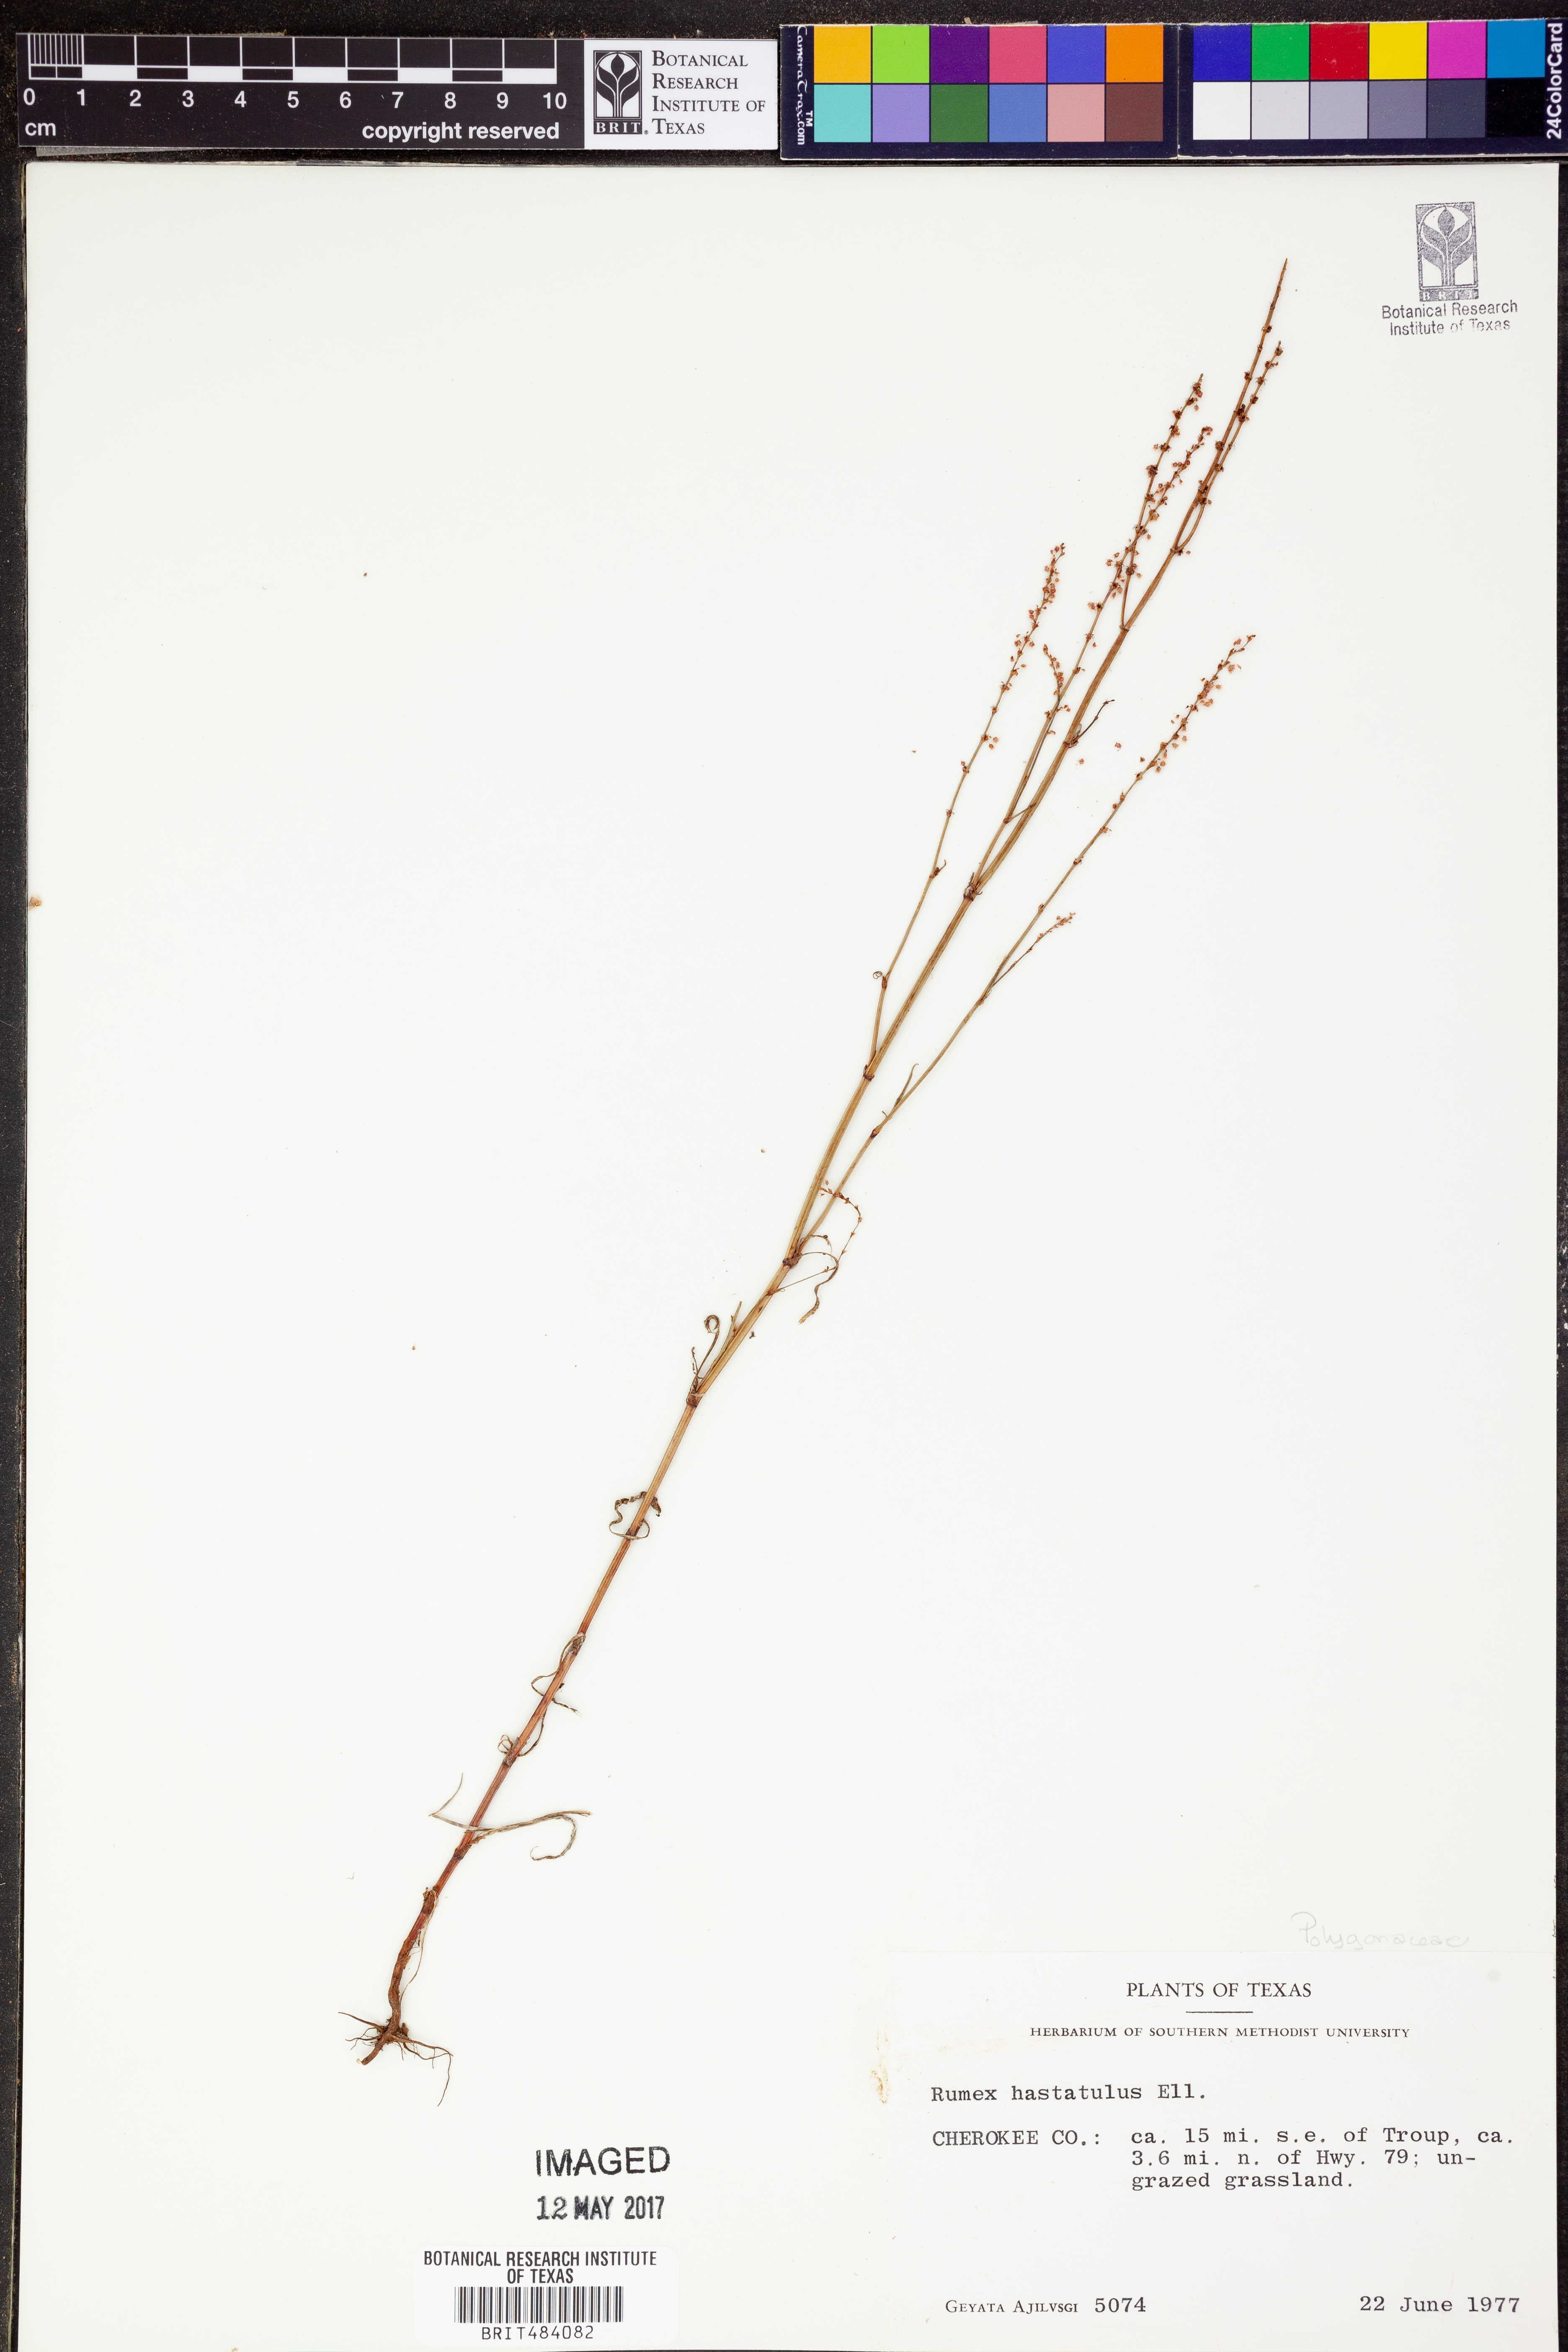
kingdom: Plantae
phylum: Tracheophyta
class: Magnoliopsida
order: Caryophyllales
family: Polygonaceae
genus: Rumex
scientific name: Rumex hastatulus
